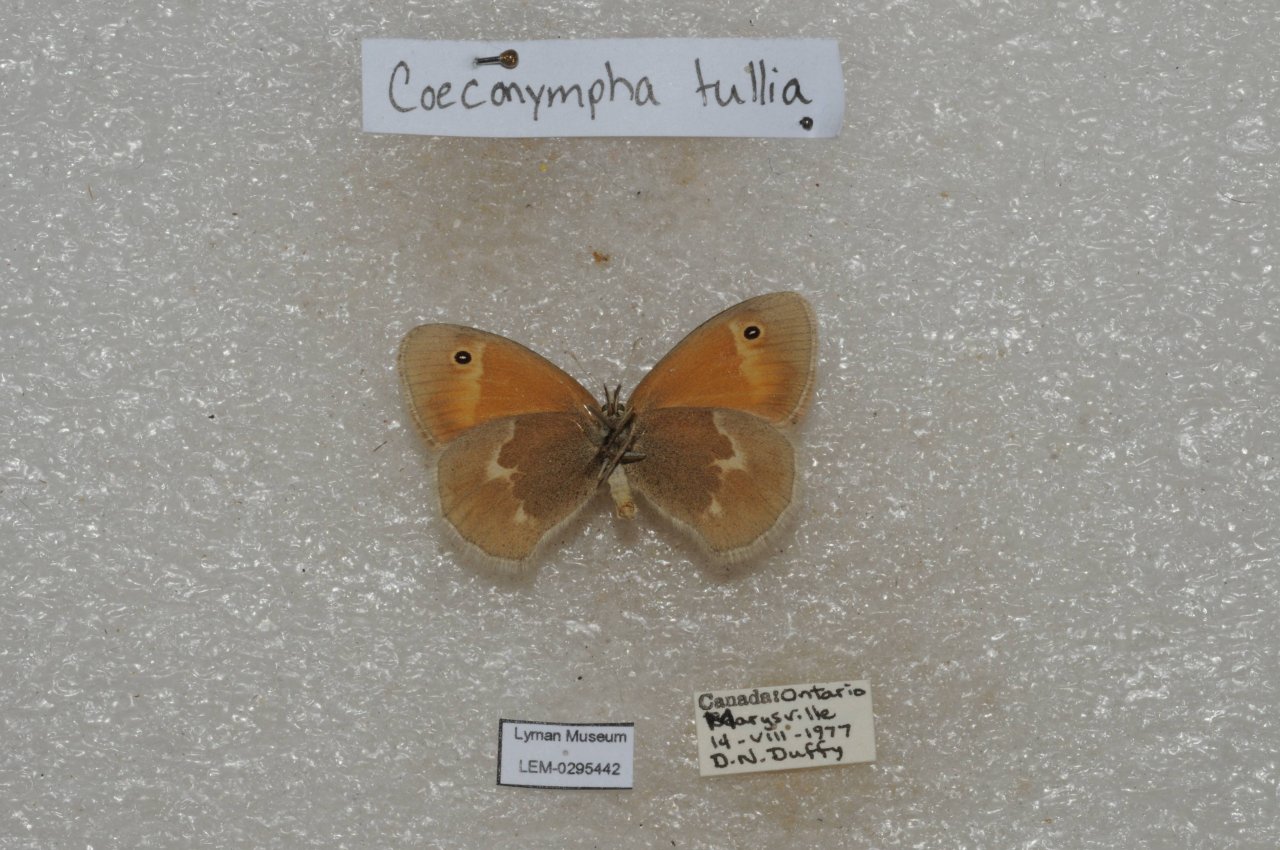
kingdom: Animalia
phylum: Arthropoda
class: Insecta
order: Lepidoptera
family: Nymphalidae
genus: Coenonympha
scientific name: Coenonympha tullia
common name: Large Heath
